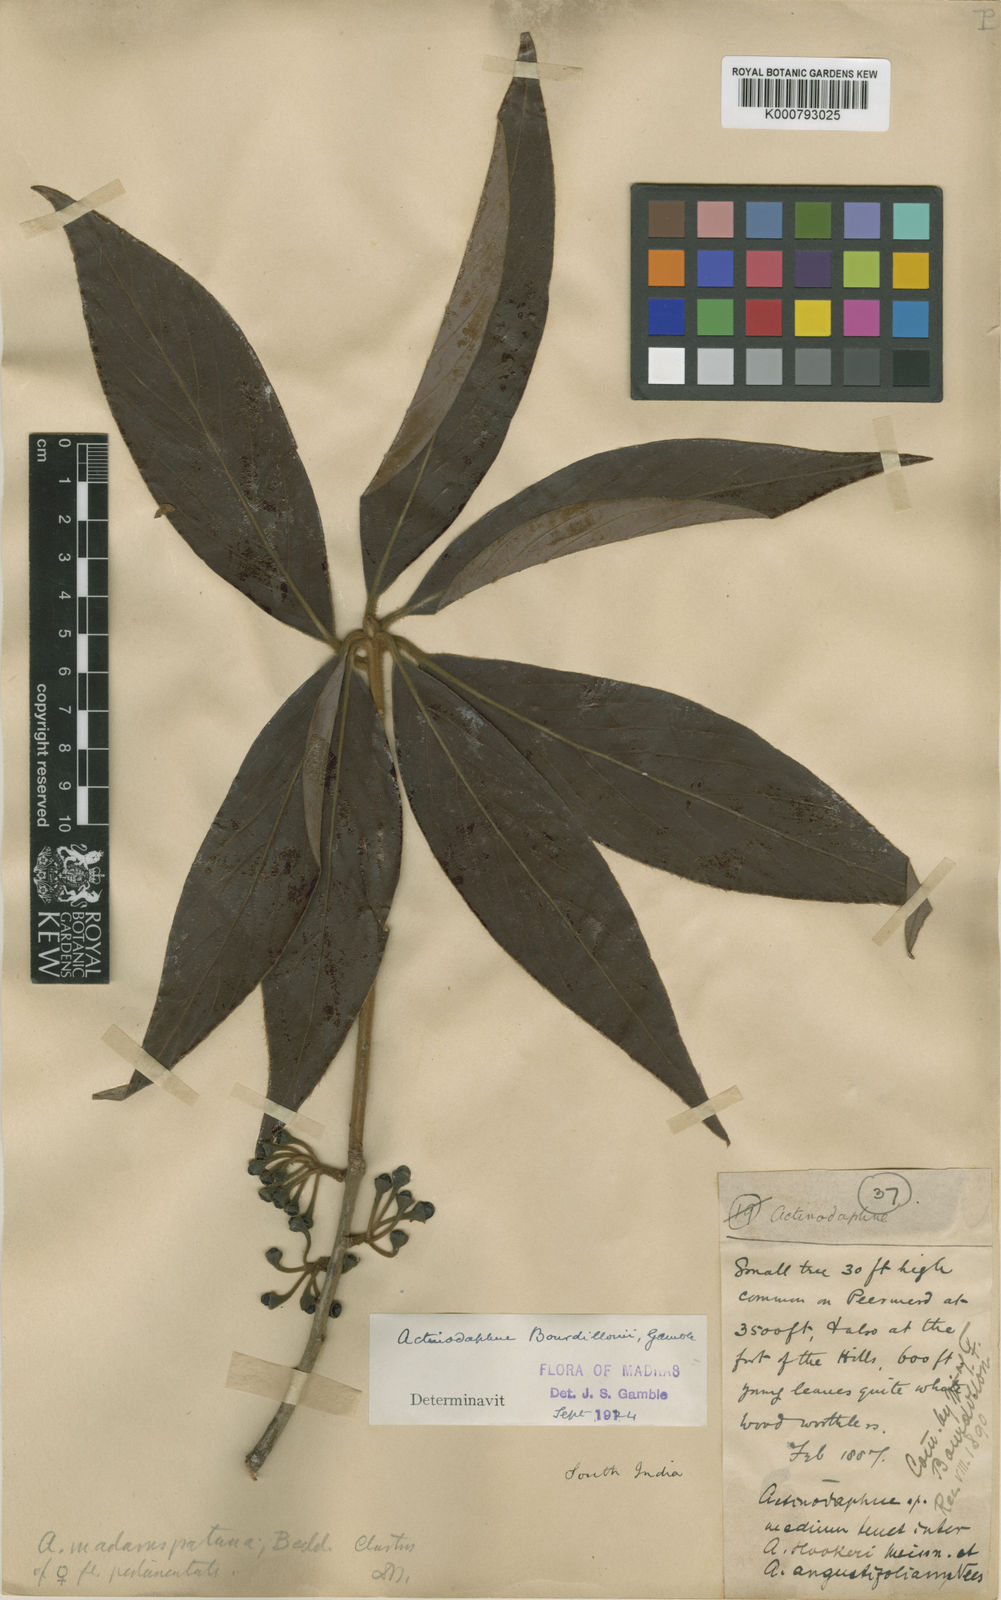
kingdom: Plantae
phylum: Tracheophyta
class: Magnoliopsida
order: Laurales
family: Lauraceae
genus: Actinodaphne
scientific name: Actinodaphne bourdillonii
